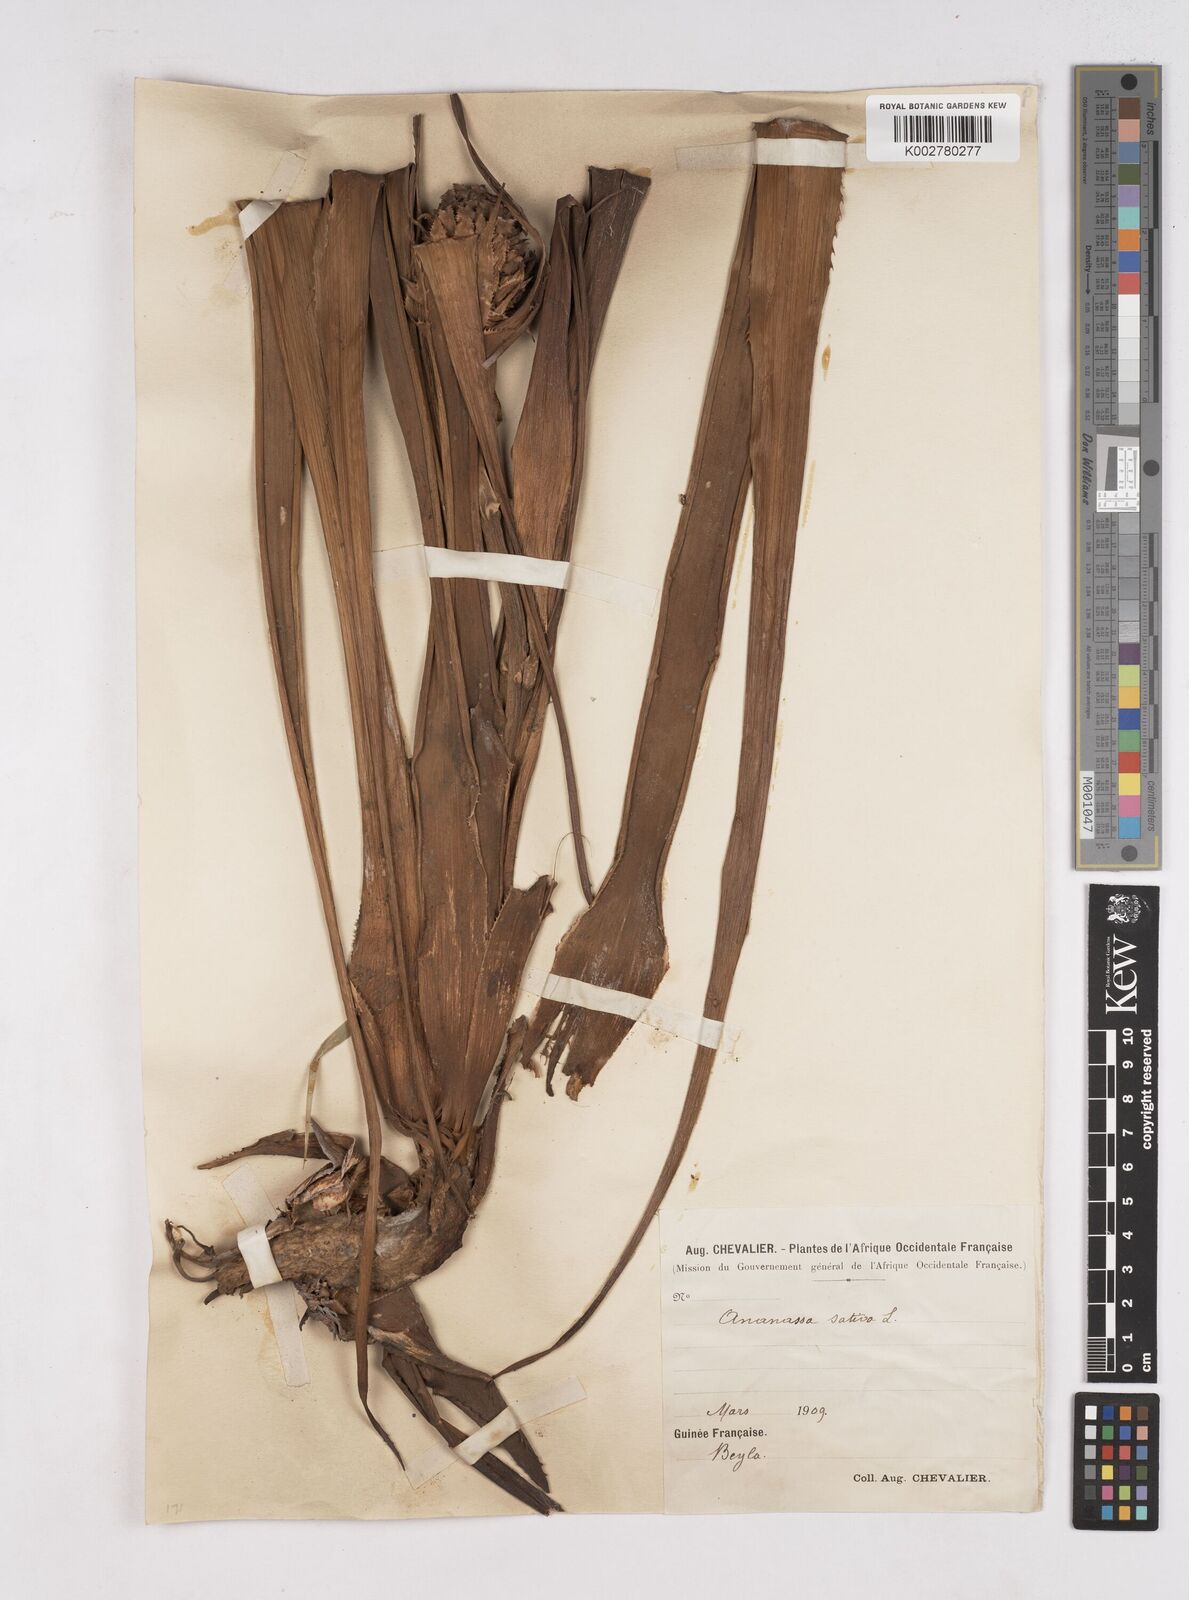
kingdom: Plantae
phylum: Tracheophyta
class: Liliopsida
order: Poales
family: Bromeliaceae
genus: Ananas
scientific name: Ananas comosus
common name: Pineapple
